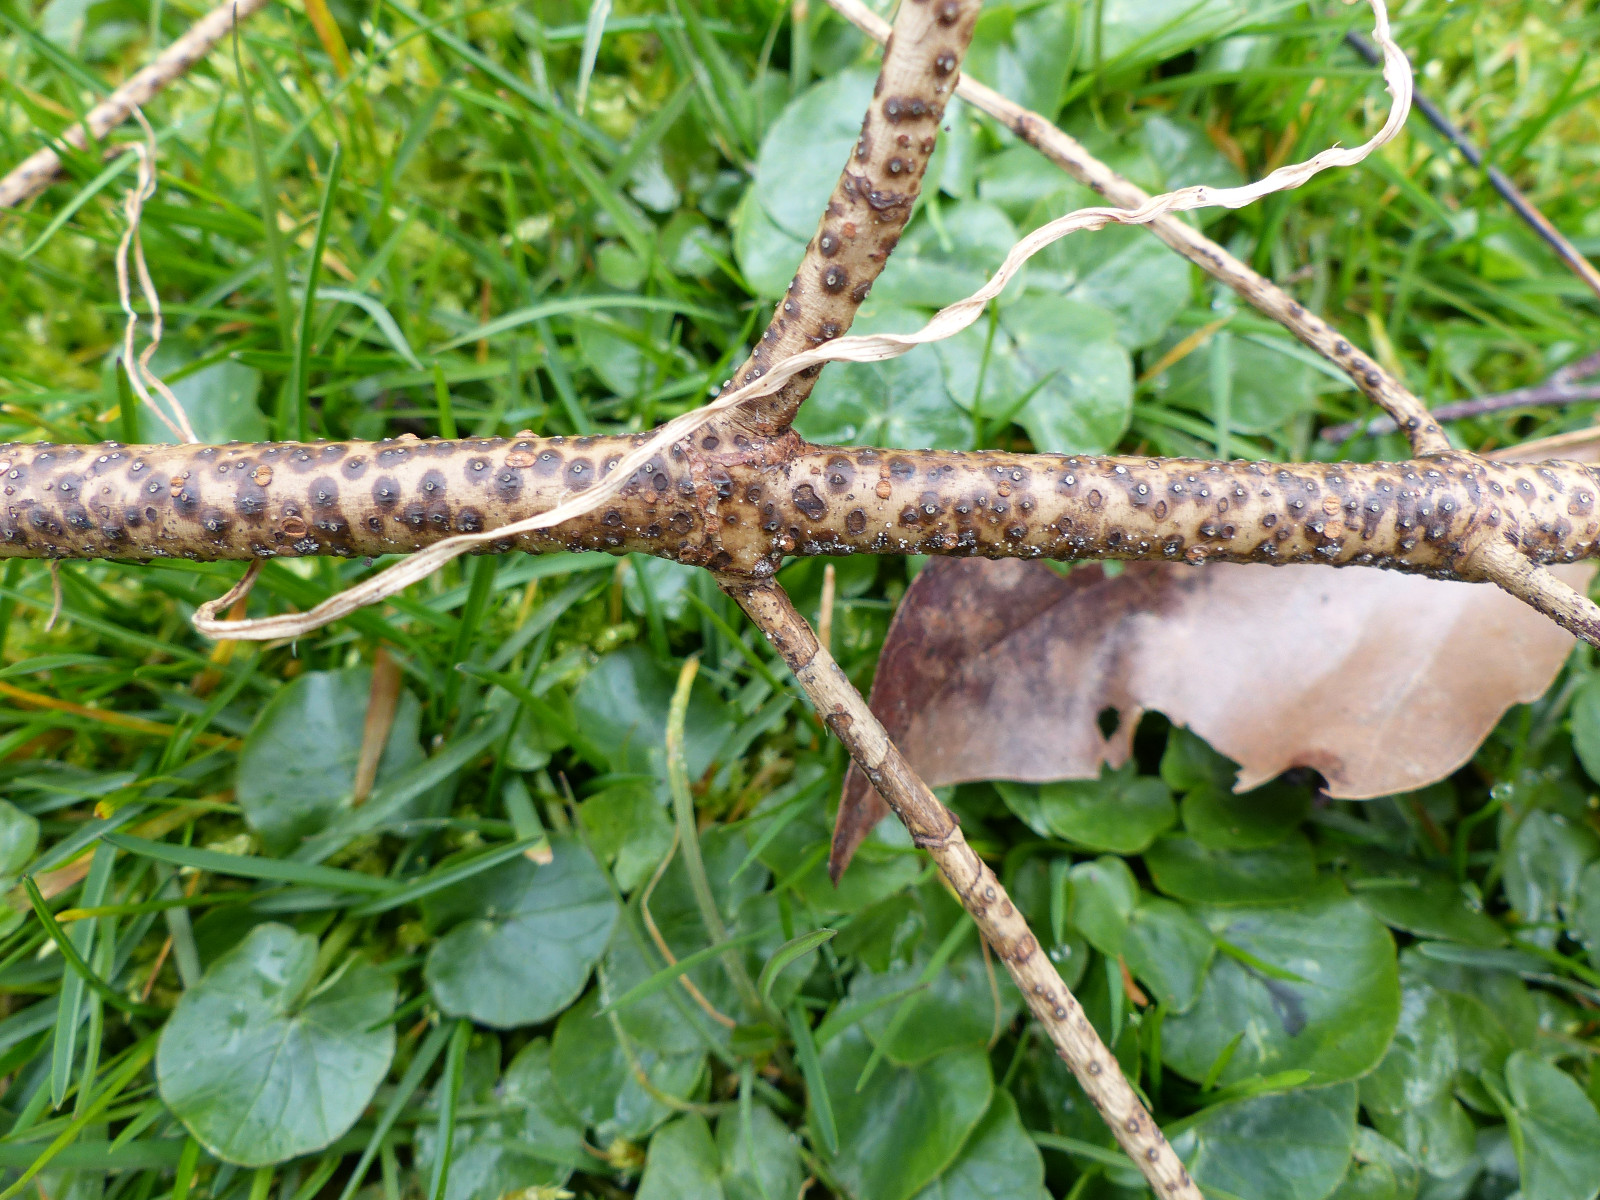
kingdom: Fungi
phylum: Ascomycota
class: Sordariomycetes
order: Diaporthales
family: Valsaceae
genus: Cytospora
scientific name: Cytospora corni
